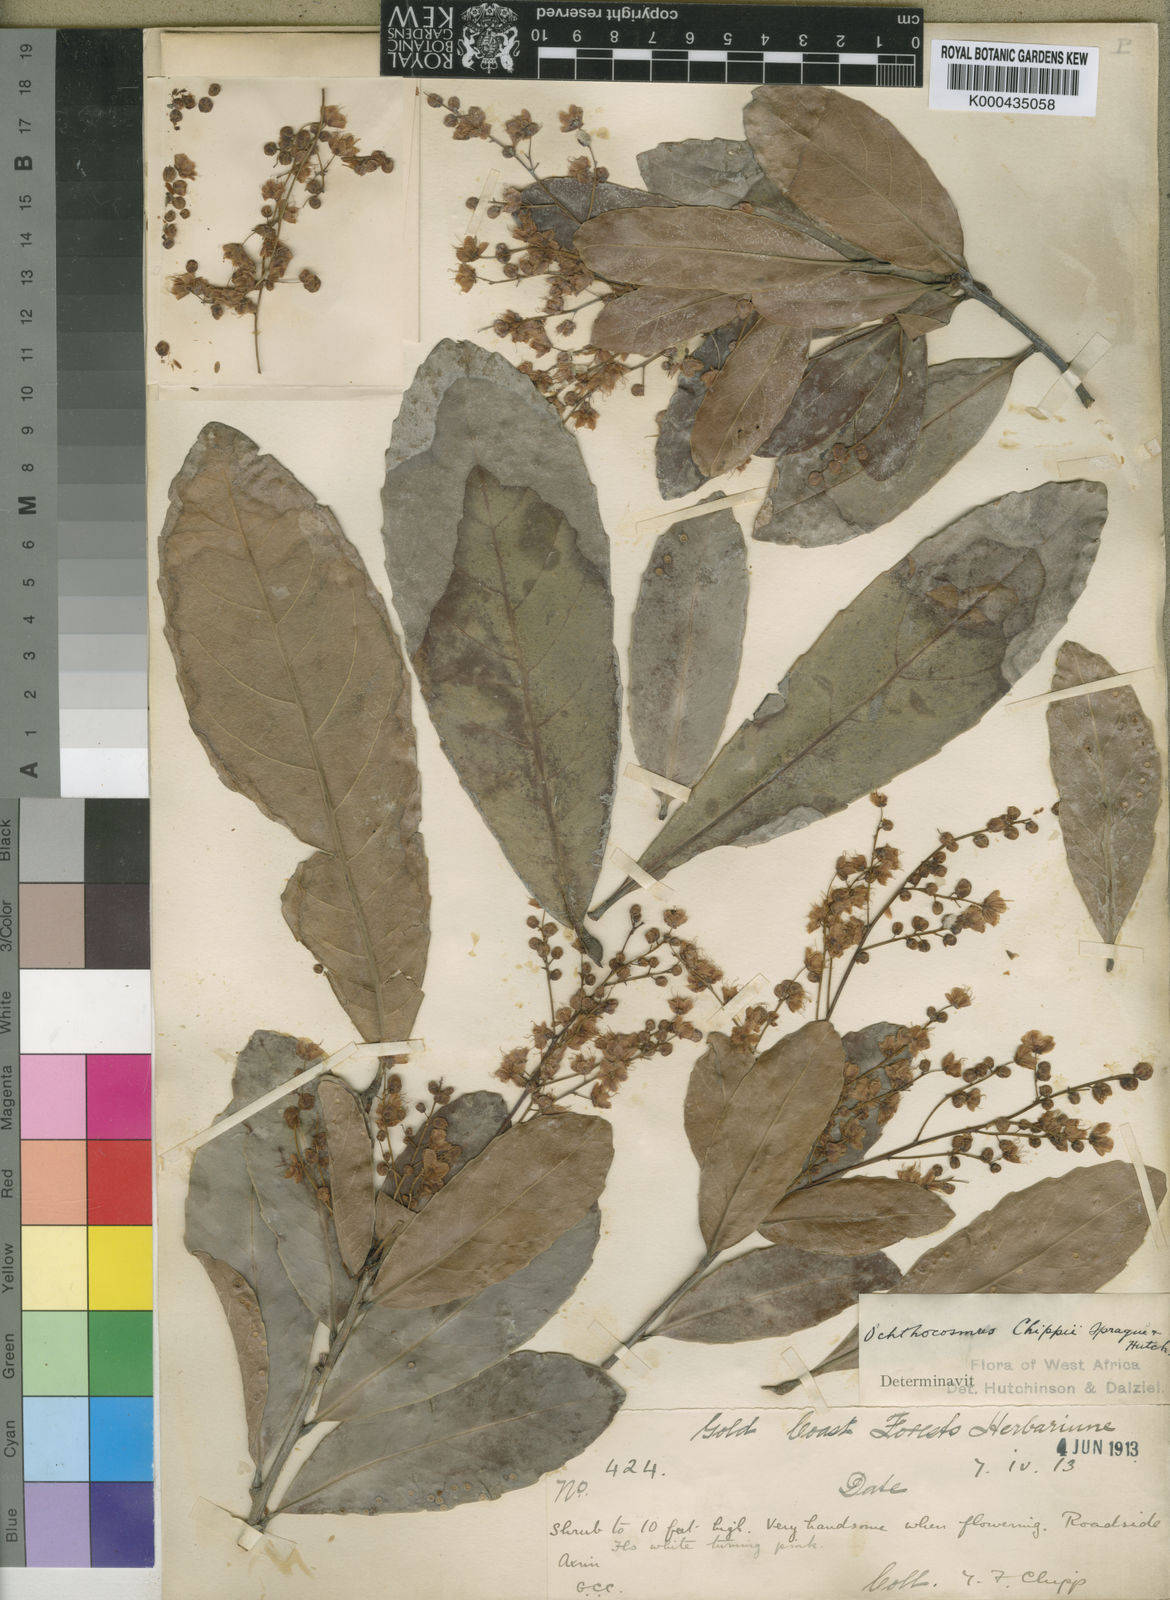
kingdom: Plantae
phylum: Tracheophyta
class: Magnoliopsida
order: Malpighiales
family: Ixonanthaceae
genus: Phyllocosmus
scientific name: Phyllocosmus sessiliflorus
